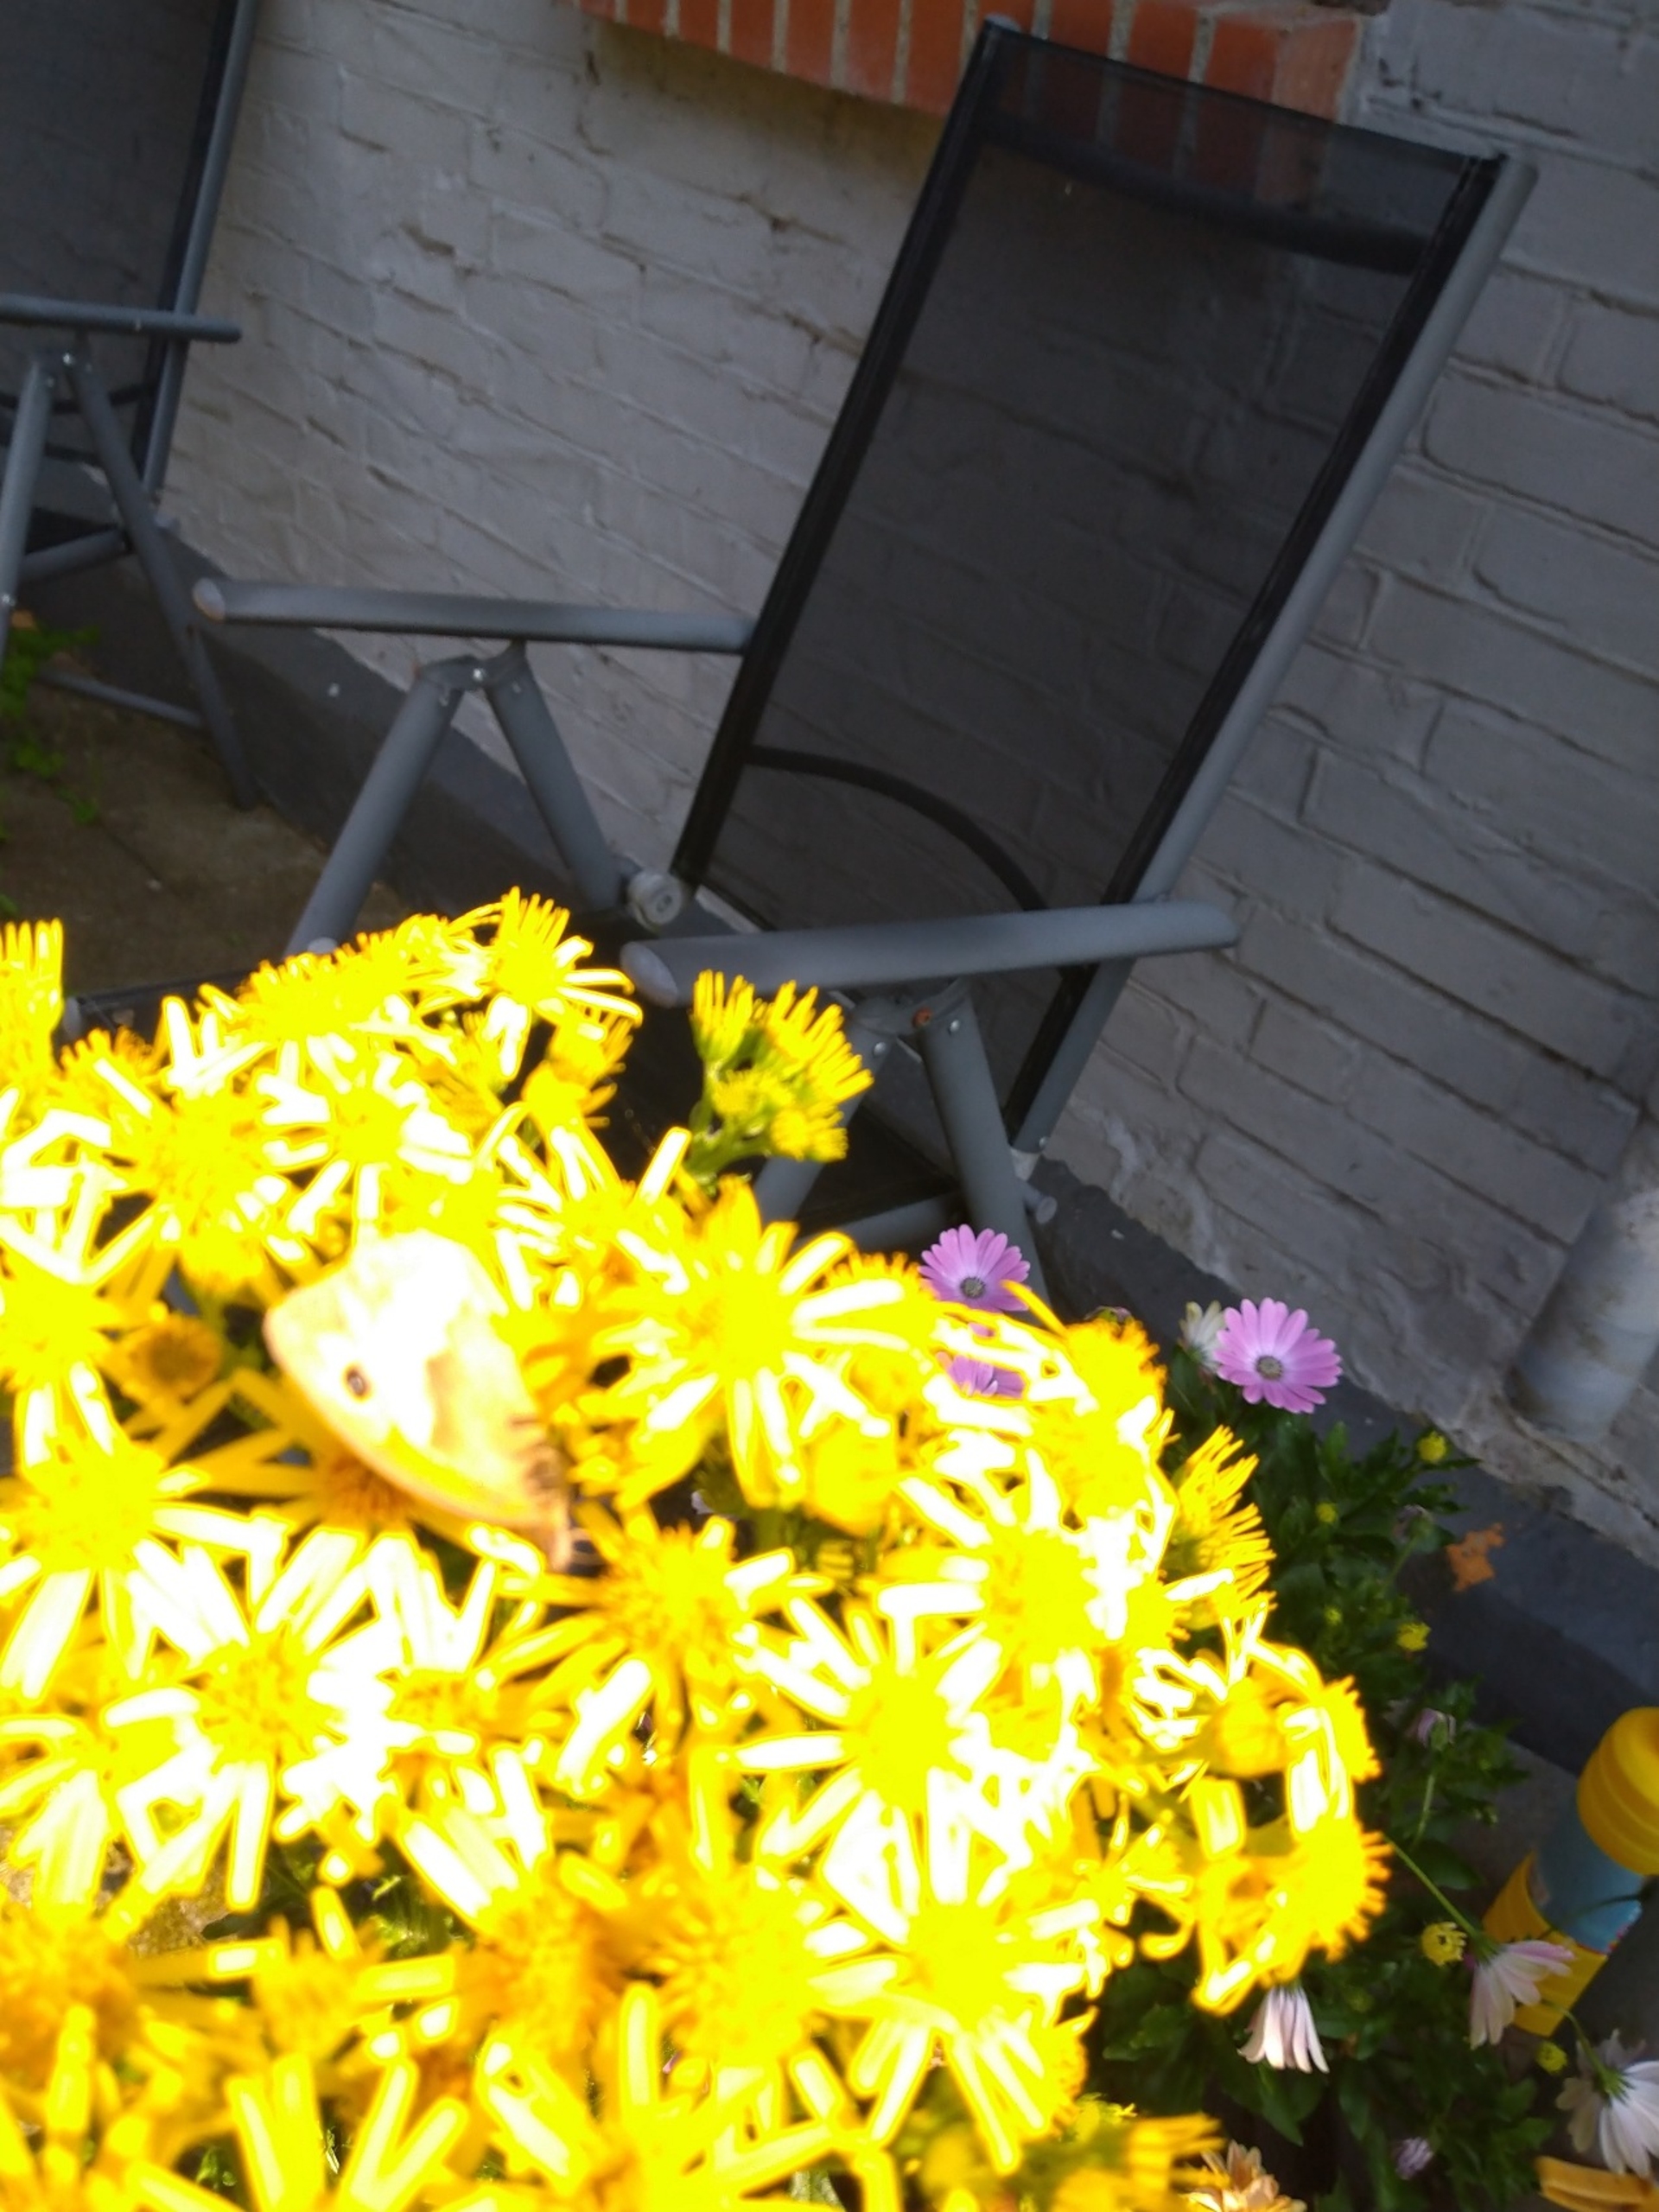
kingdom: Animalia
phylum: Arthropoda
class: Insecta
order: Lepidoptera
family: Nymphalidae
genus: Maniola
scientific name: Maniola jurtina
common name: Græsrandøje
